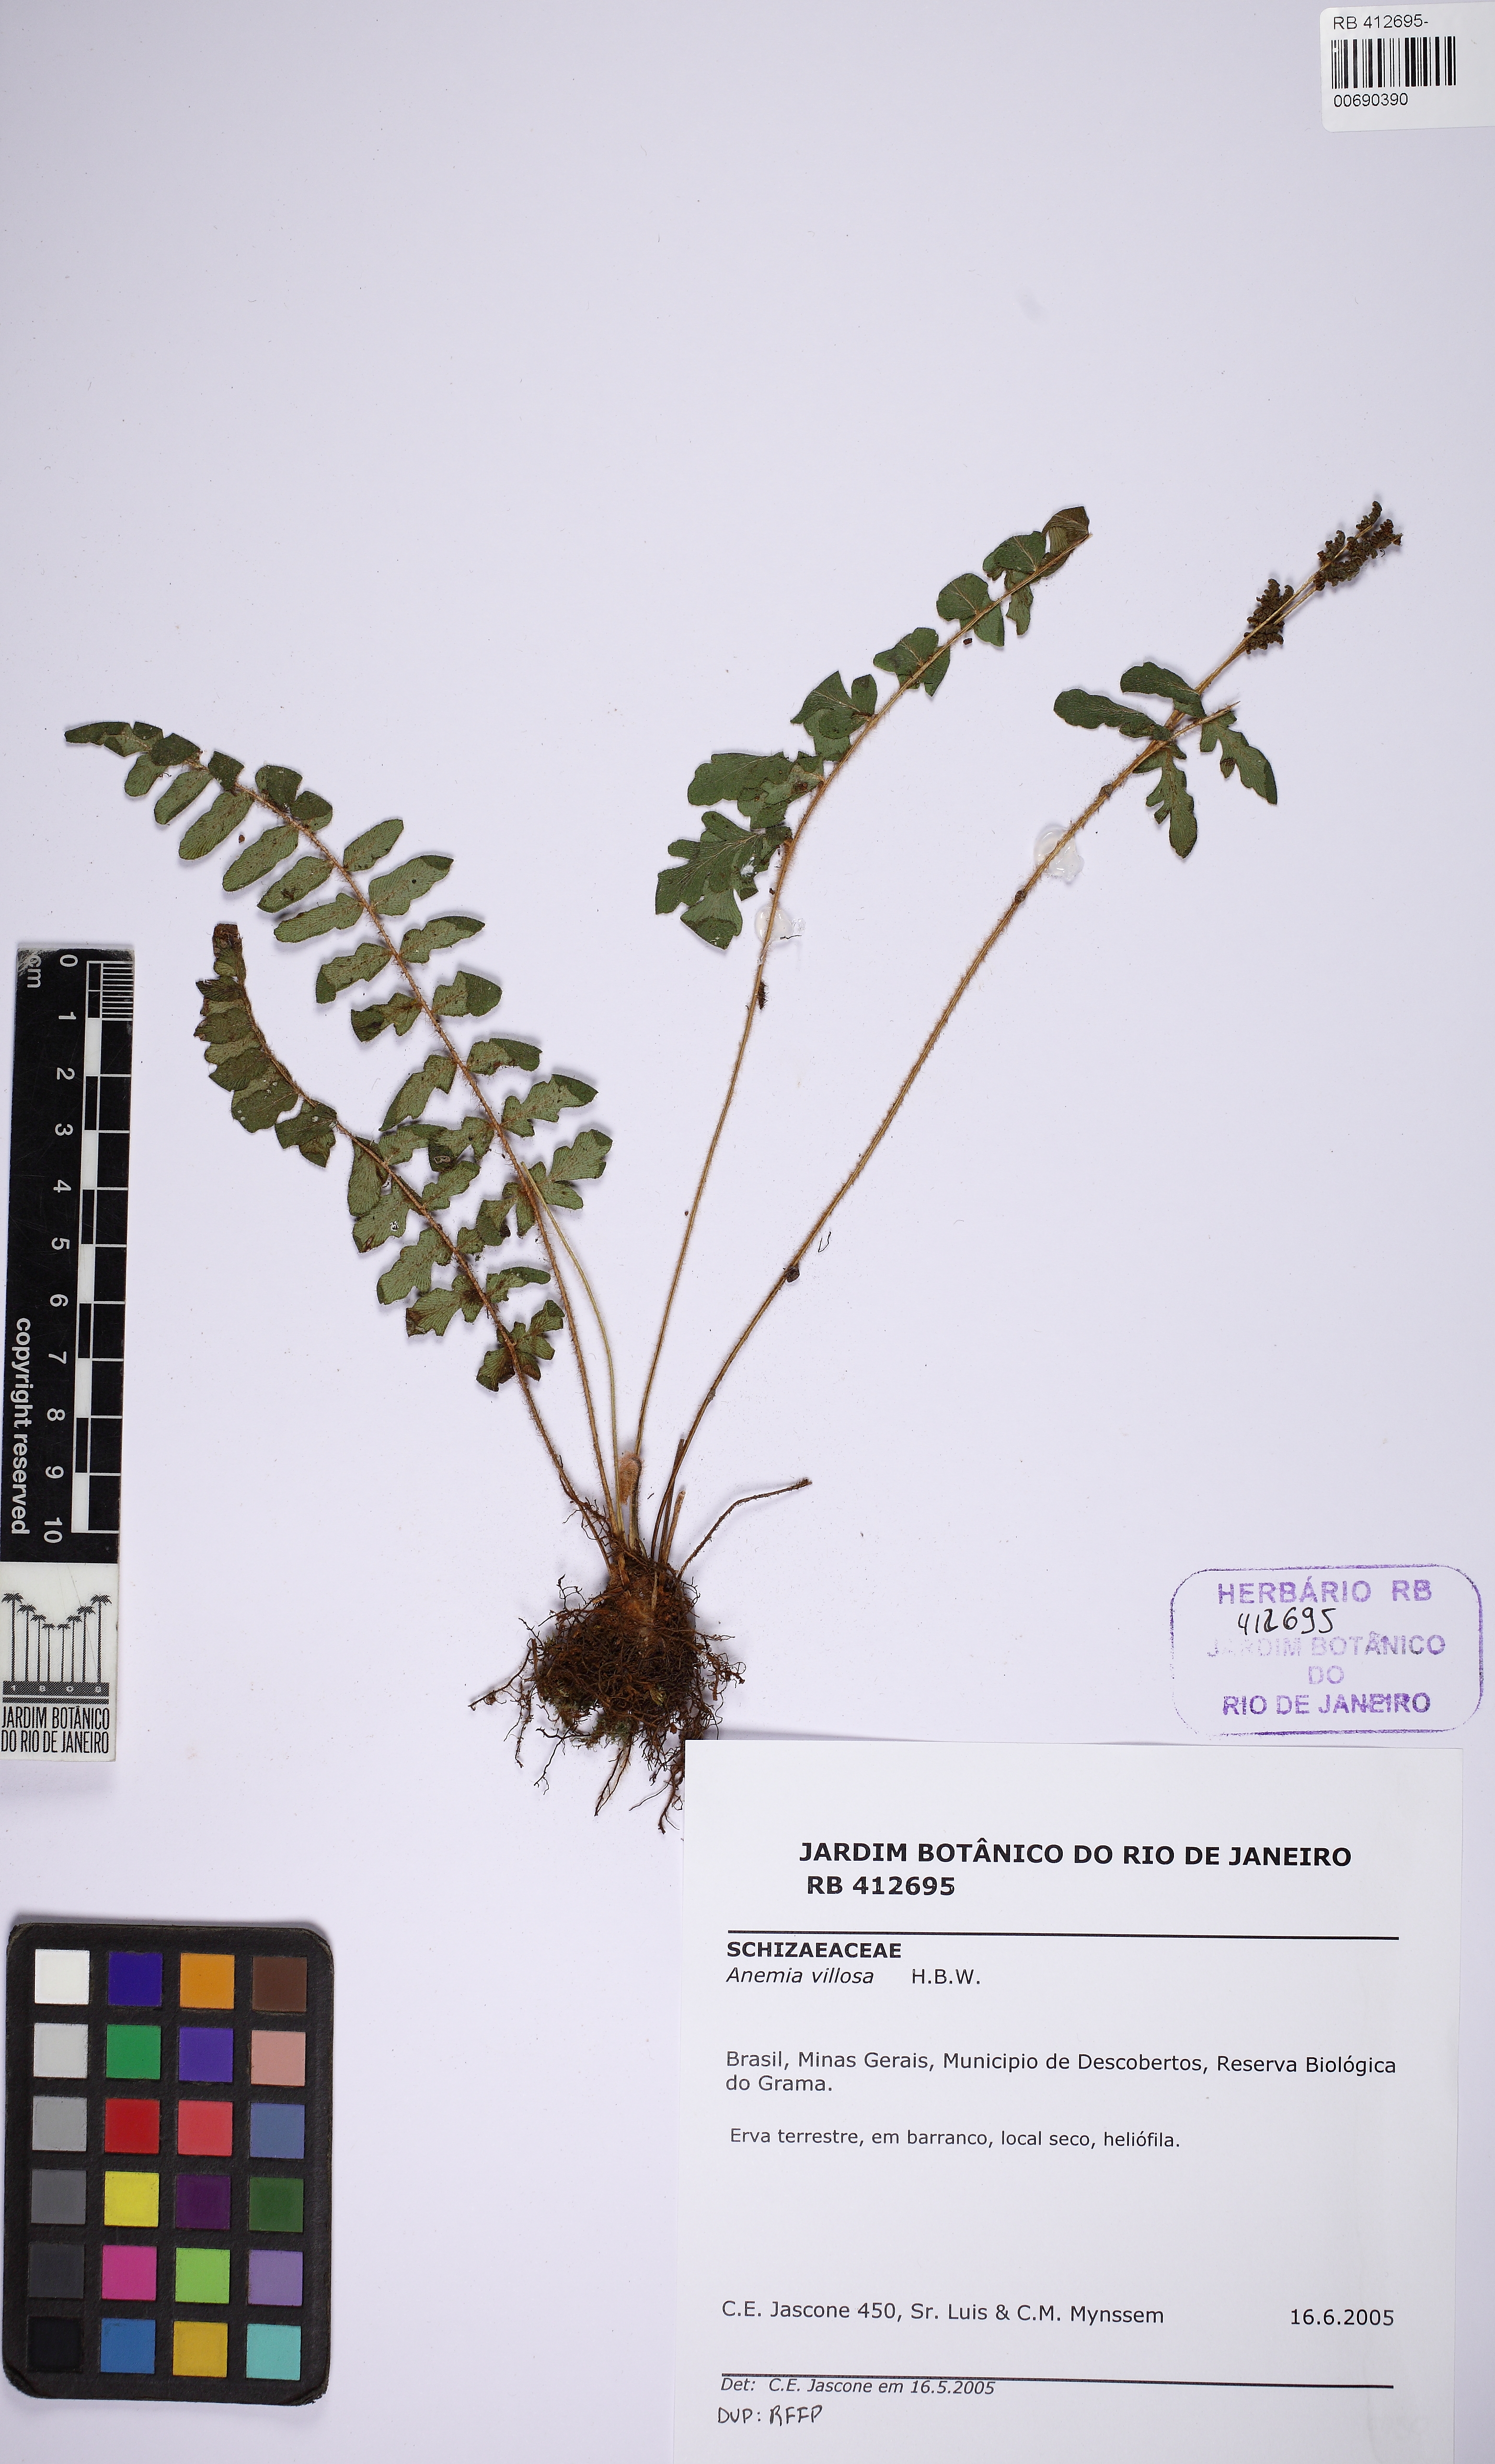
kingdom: Plantae
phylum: Tracheophyta
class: Polypodiopsida
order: Schizaeales
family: Anemiaceae
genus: Anemia
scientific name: Anemia villosa
